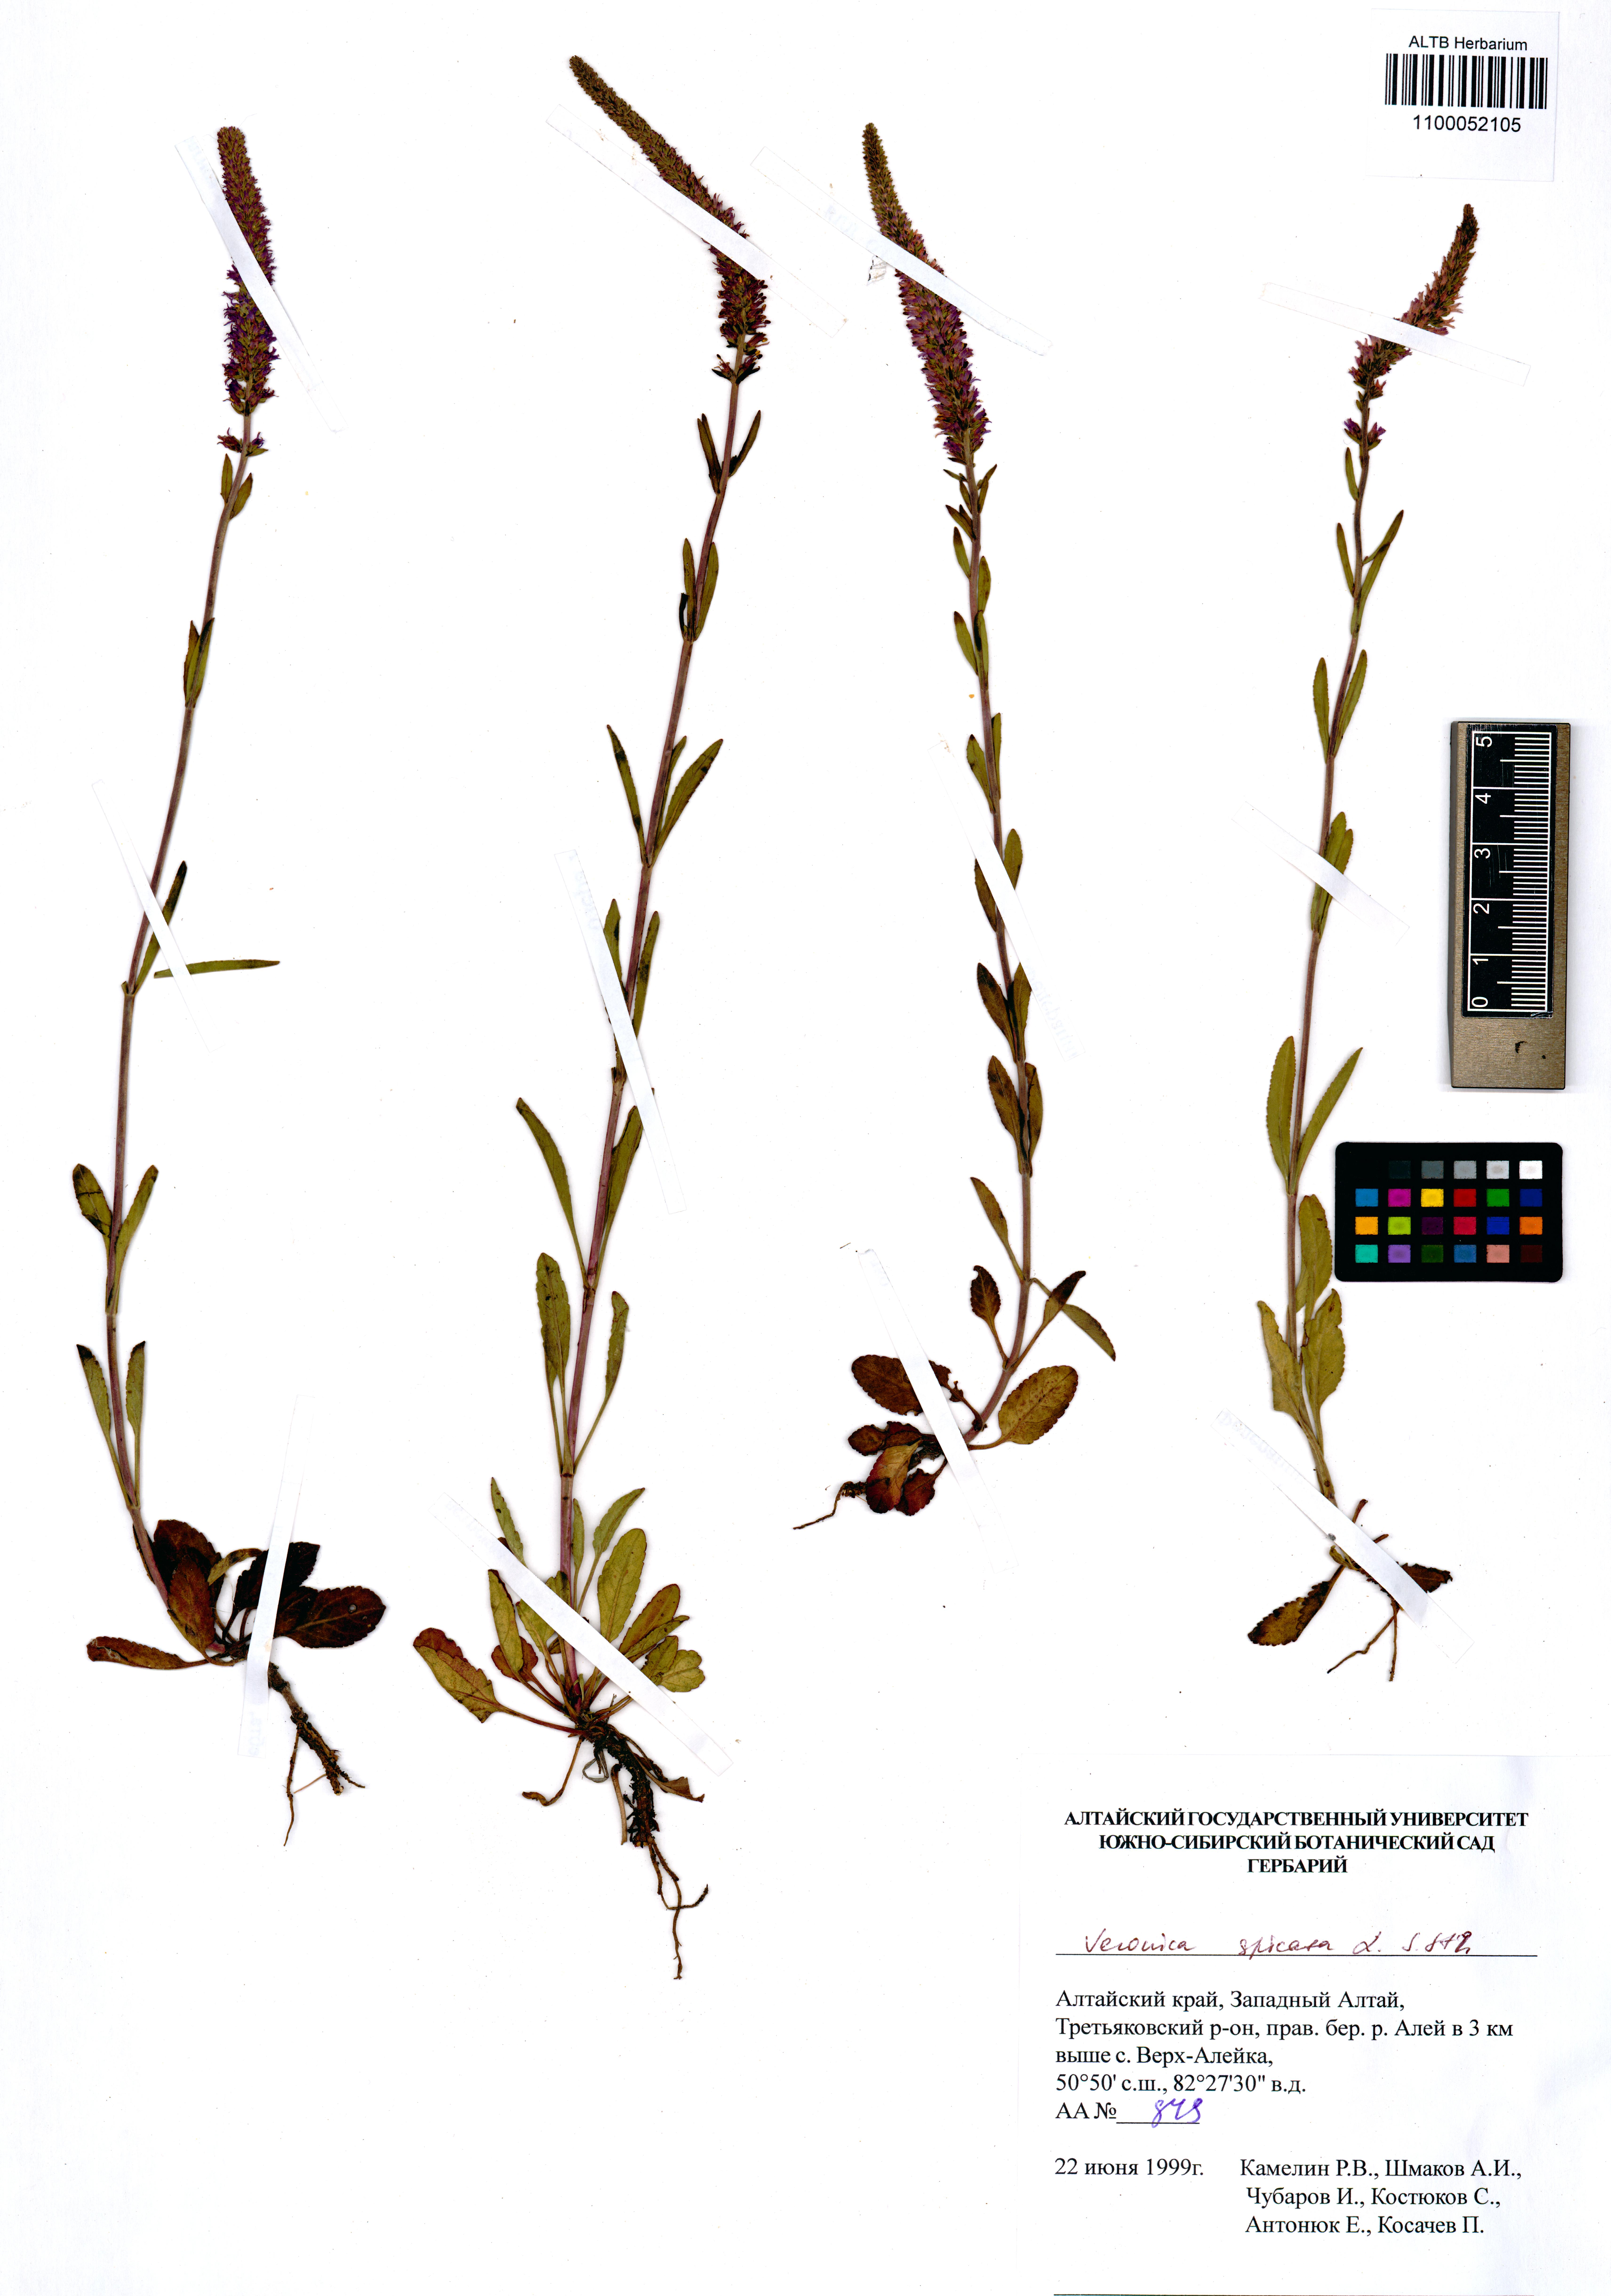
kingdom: Plantae
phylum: Tracheophyta
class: Magnoliopsida
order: Lamiales
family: Plantaginaceae
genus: Veronica
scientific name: Veronica spicata
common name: Spiked speedwell
